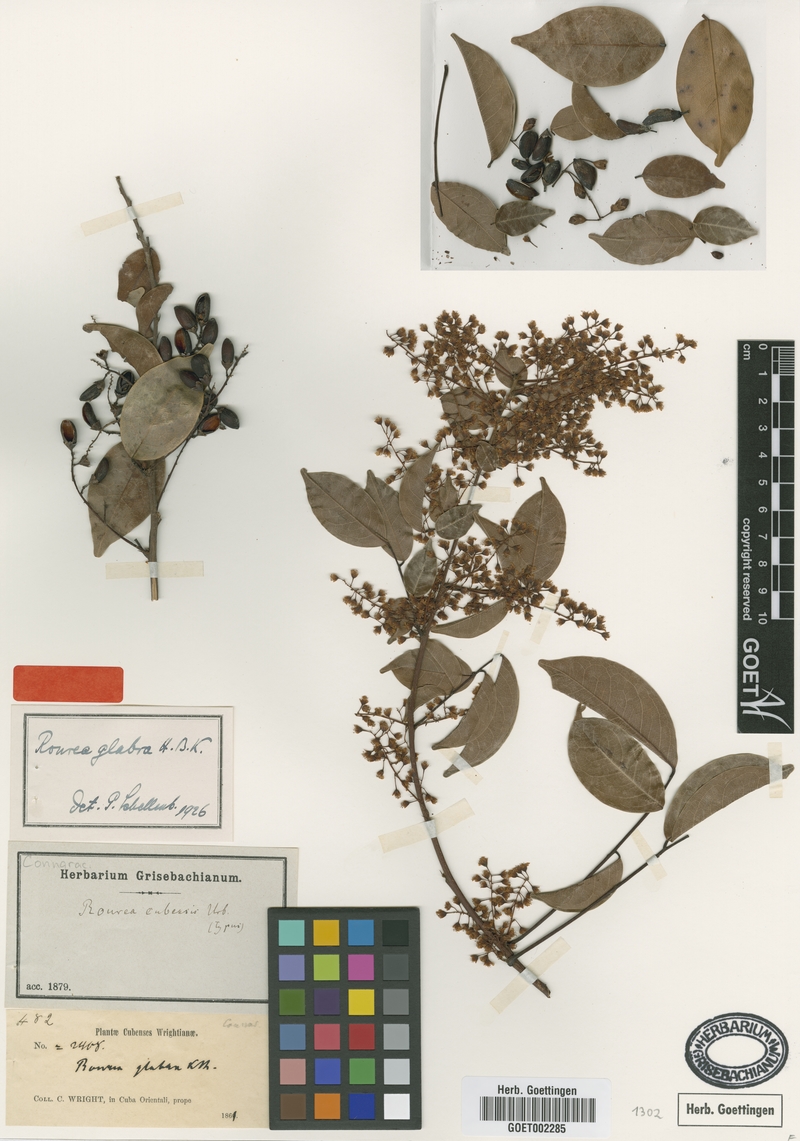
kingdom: Plantae
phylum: Tracheophyta
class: Magnoliopsida
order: Oxalidales
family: Connaraceae
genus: Rourea
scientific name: Rourea glabra
